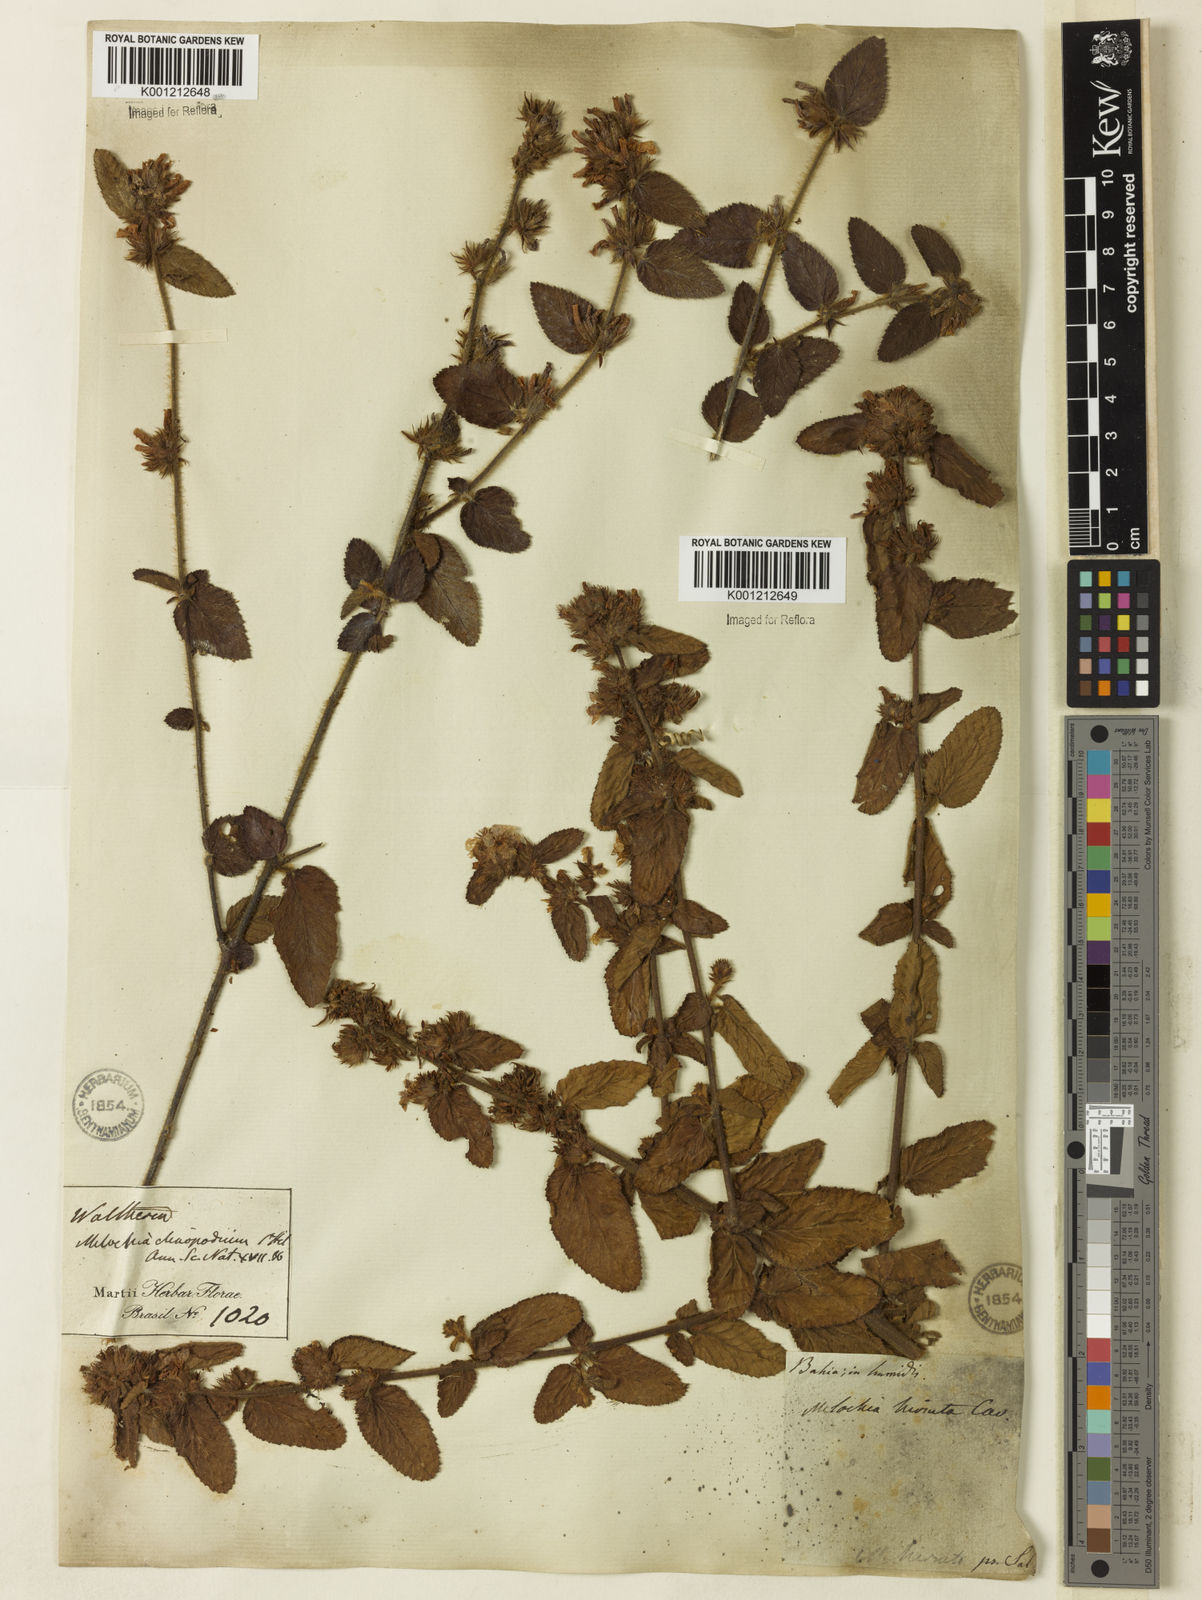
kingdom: Plantae
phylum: Tracheophyta
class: Magnoliopsida
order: Malvales
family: Malvaceae
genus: Melochia
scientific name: Melochia spicata
